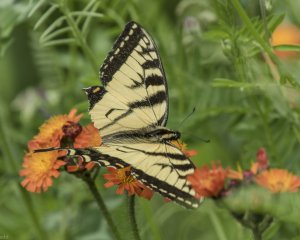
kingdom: Animalia
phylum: Arthropoda
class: Insecta
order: Lepidoptera
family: Papilionidae
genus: Pterourus
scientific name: Pterourus canadensis
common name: Canadian Tiger Swallowtail
